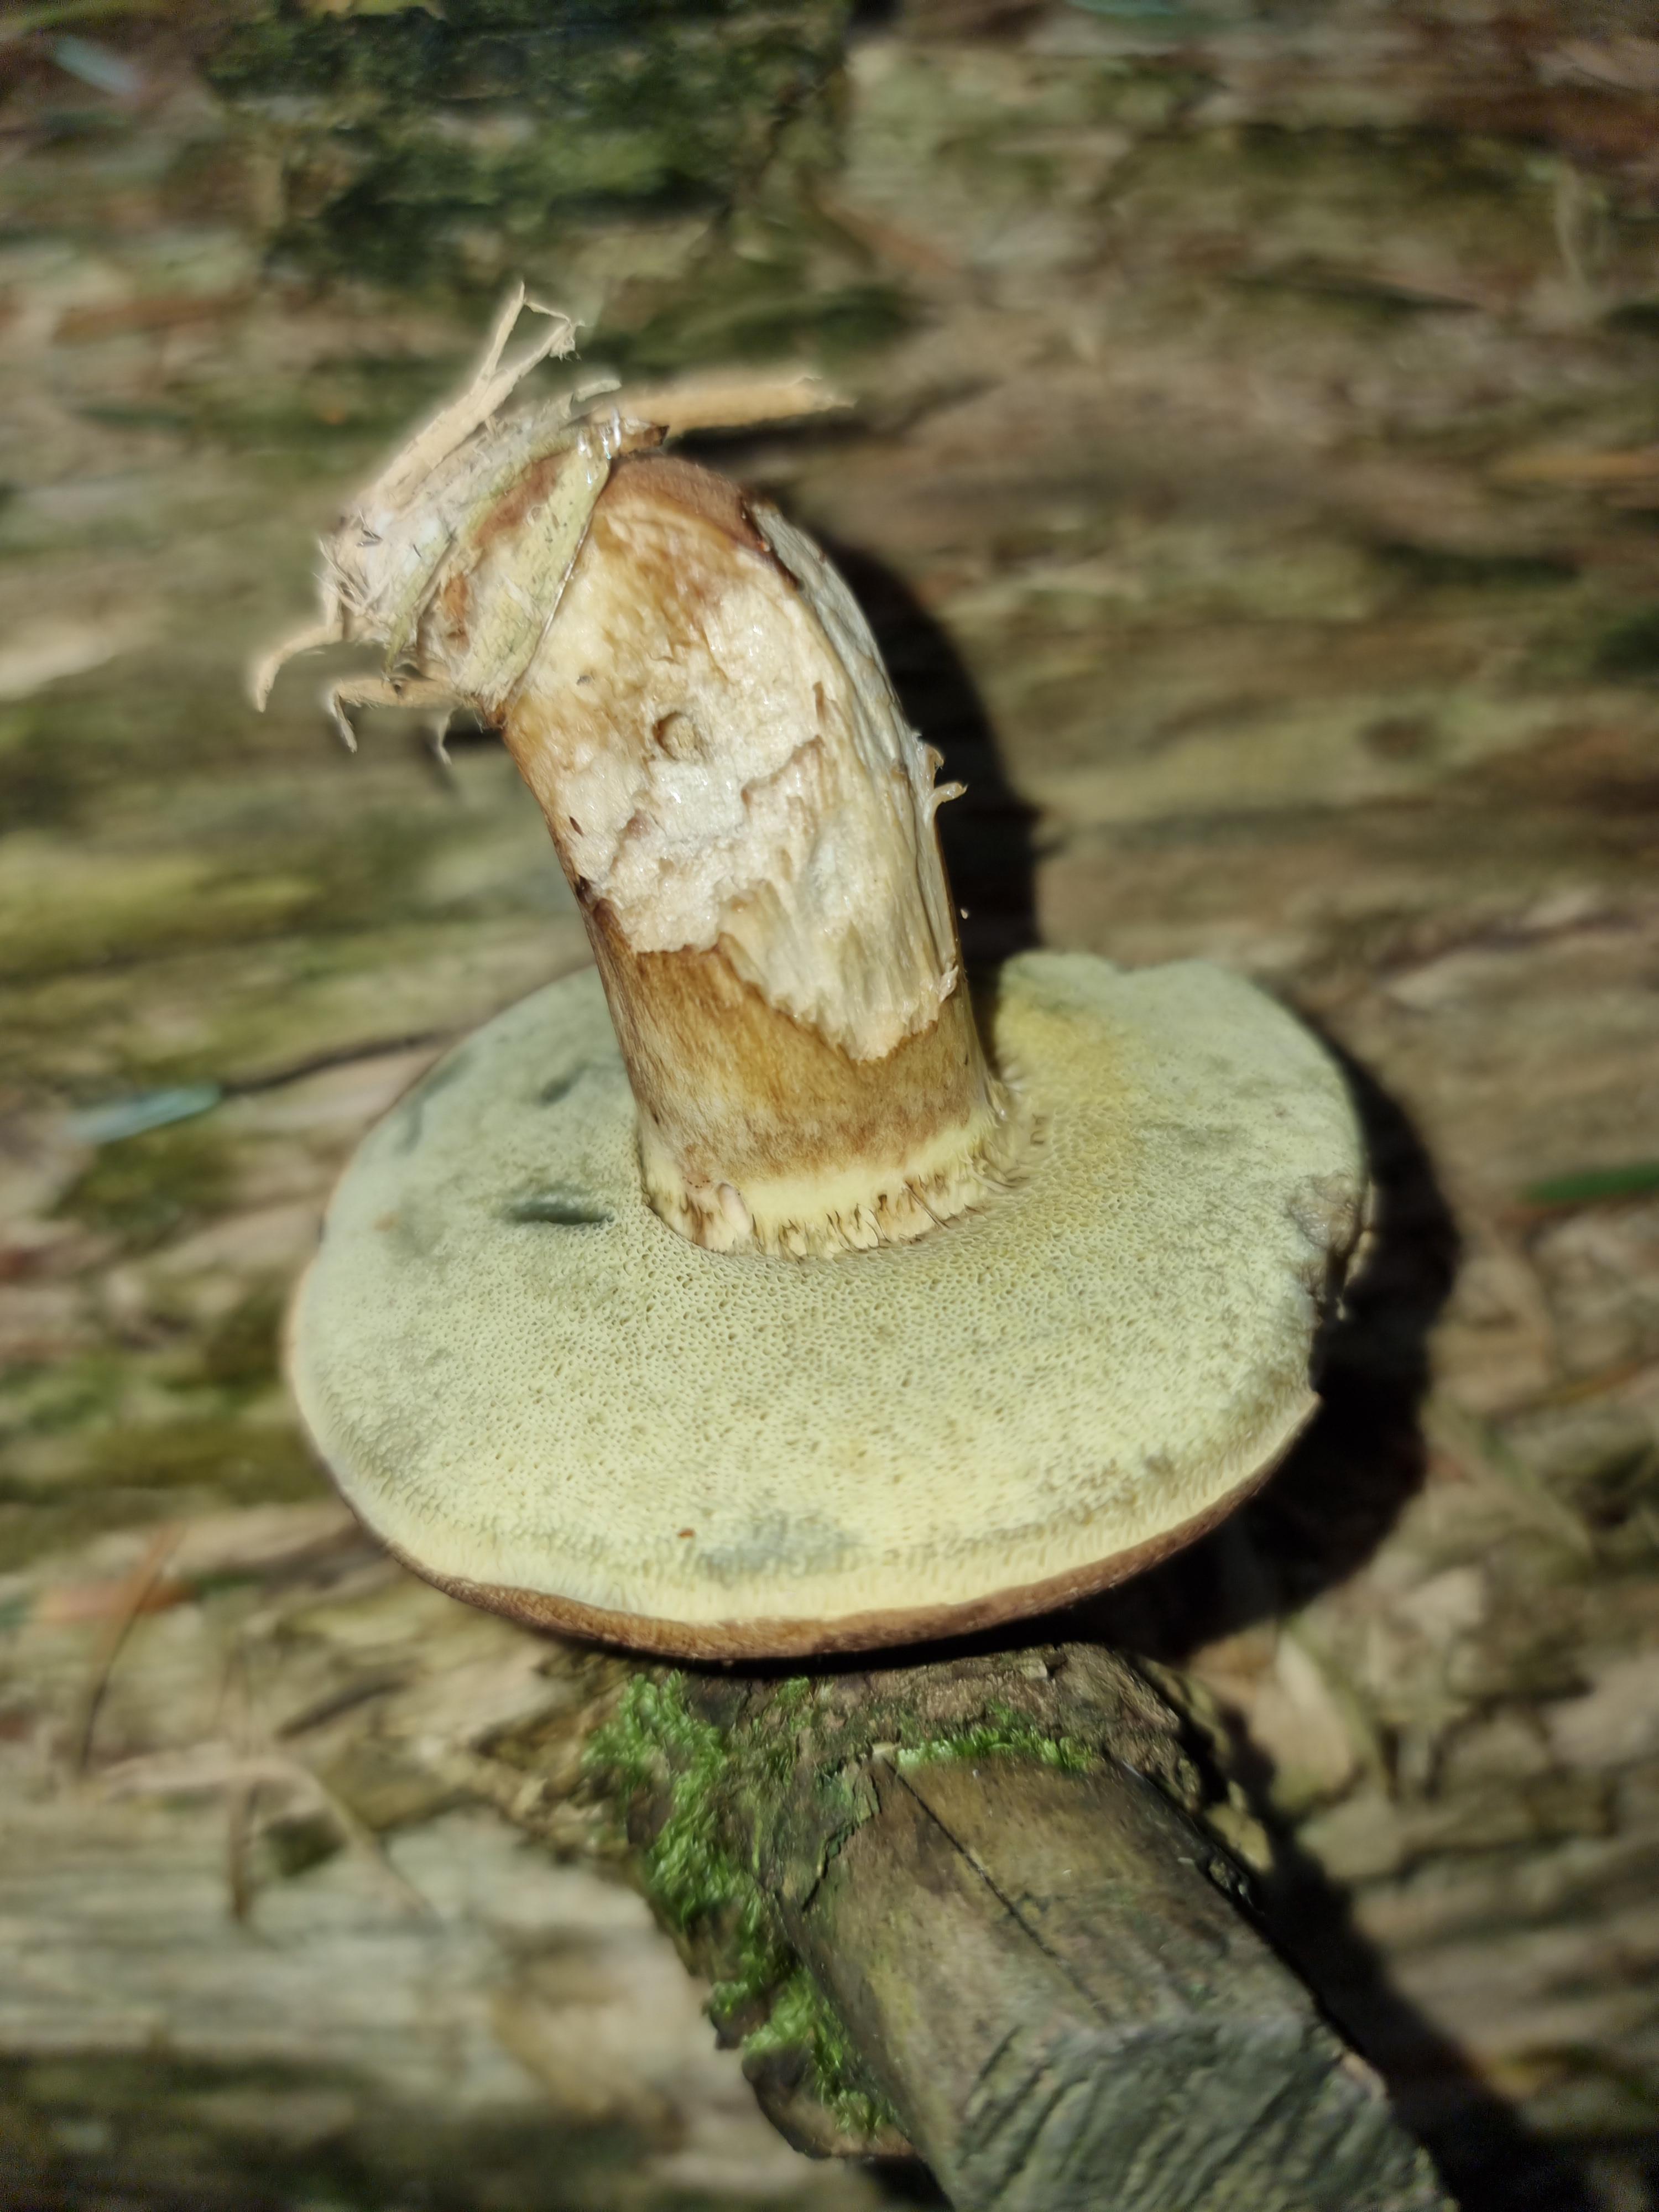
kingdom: Fungi
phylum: Basidiomycota
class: Agaricomycetes
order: Boletales
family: Boletaceae
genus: Imleria
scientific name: Imleria badia
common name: brunstokket rørhat
